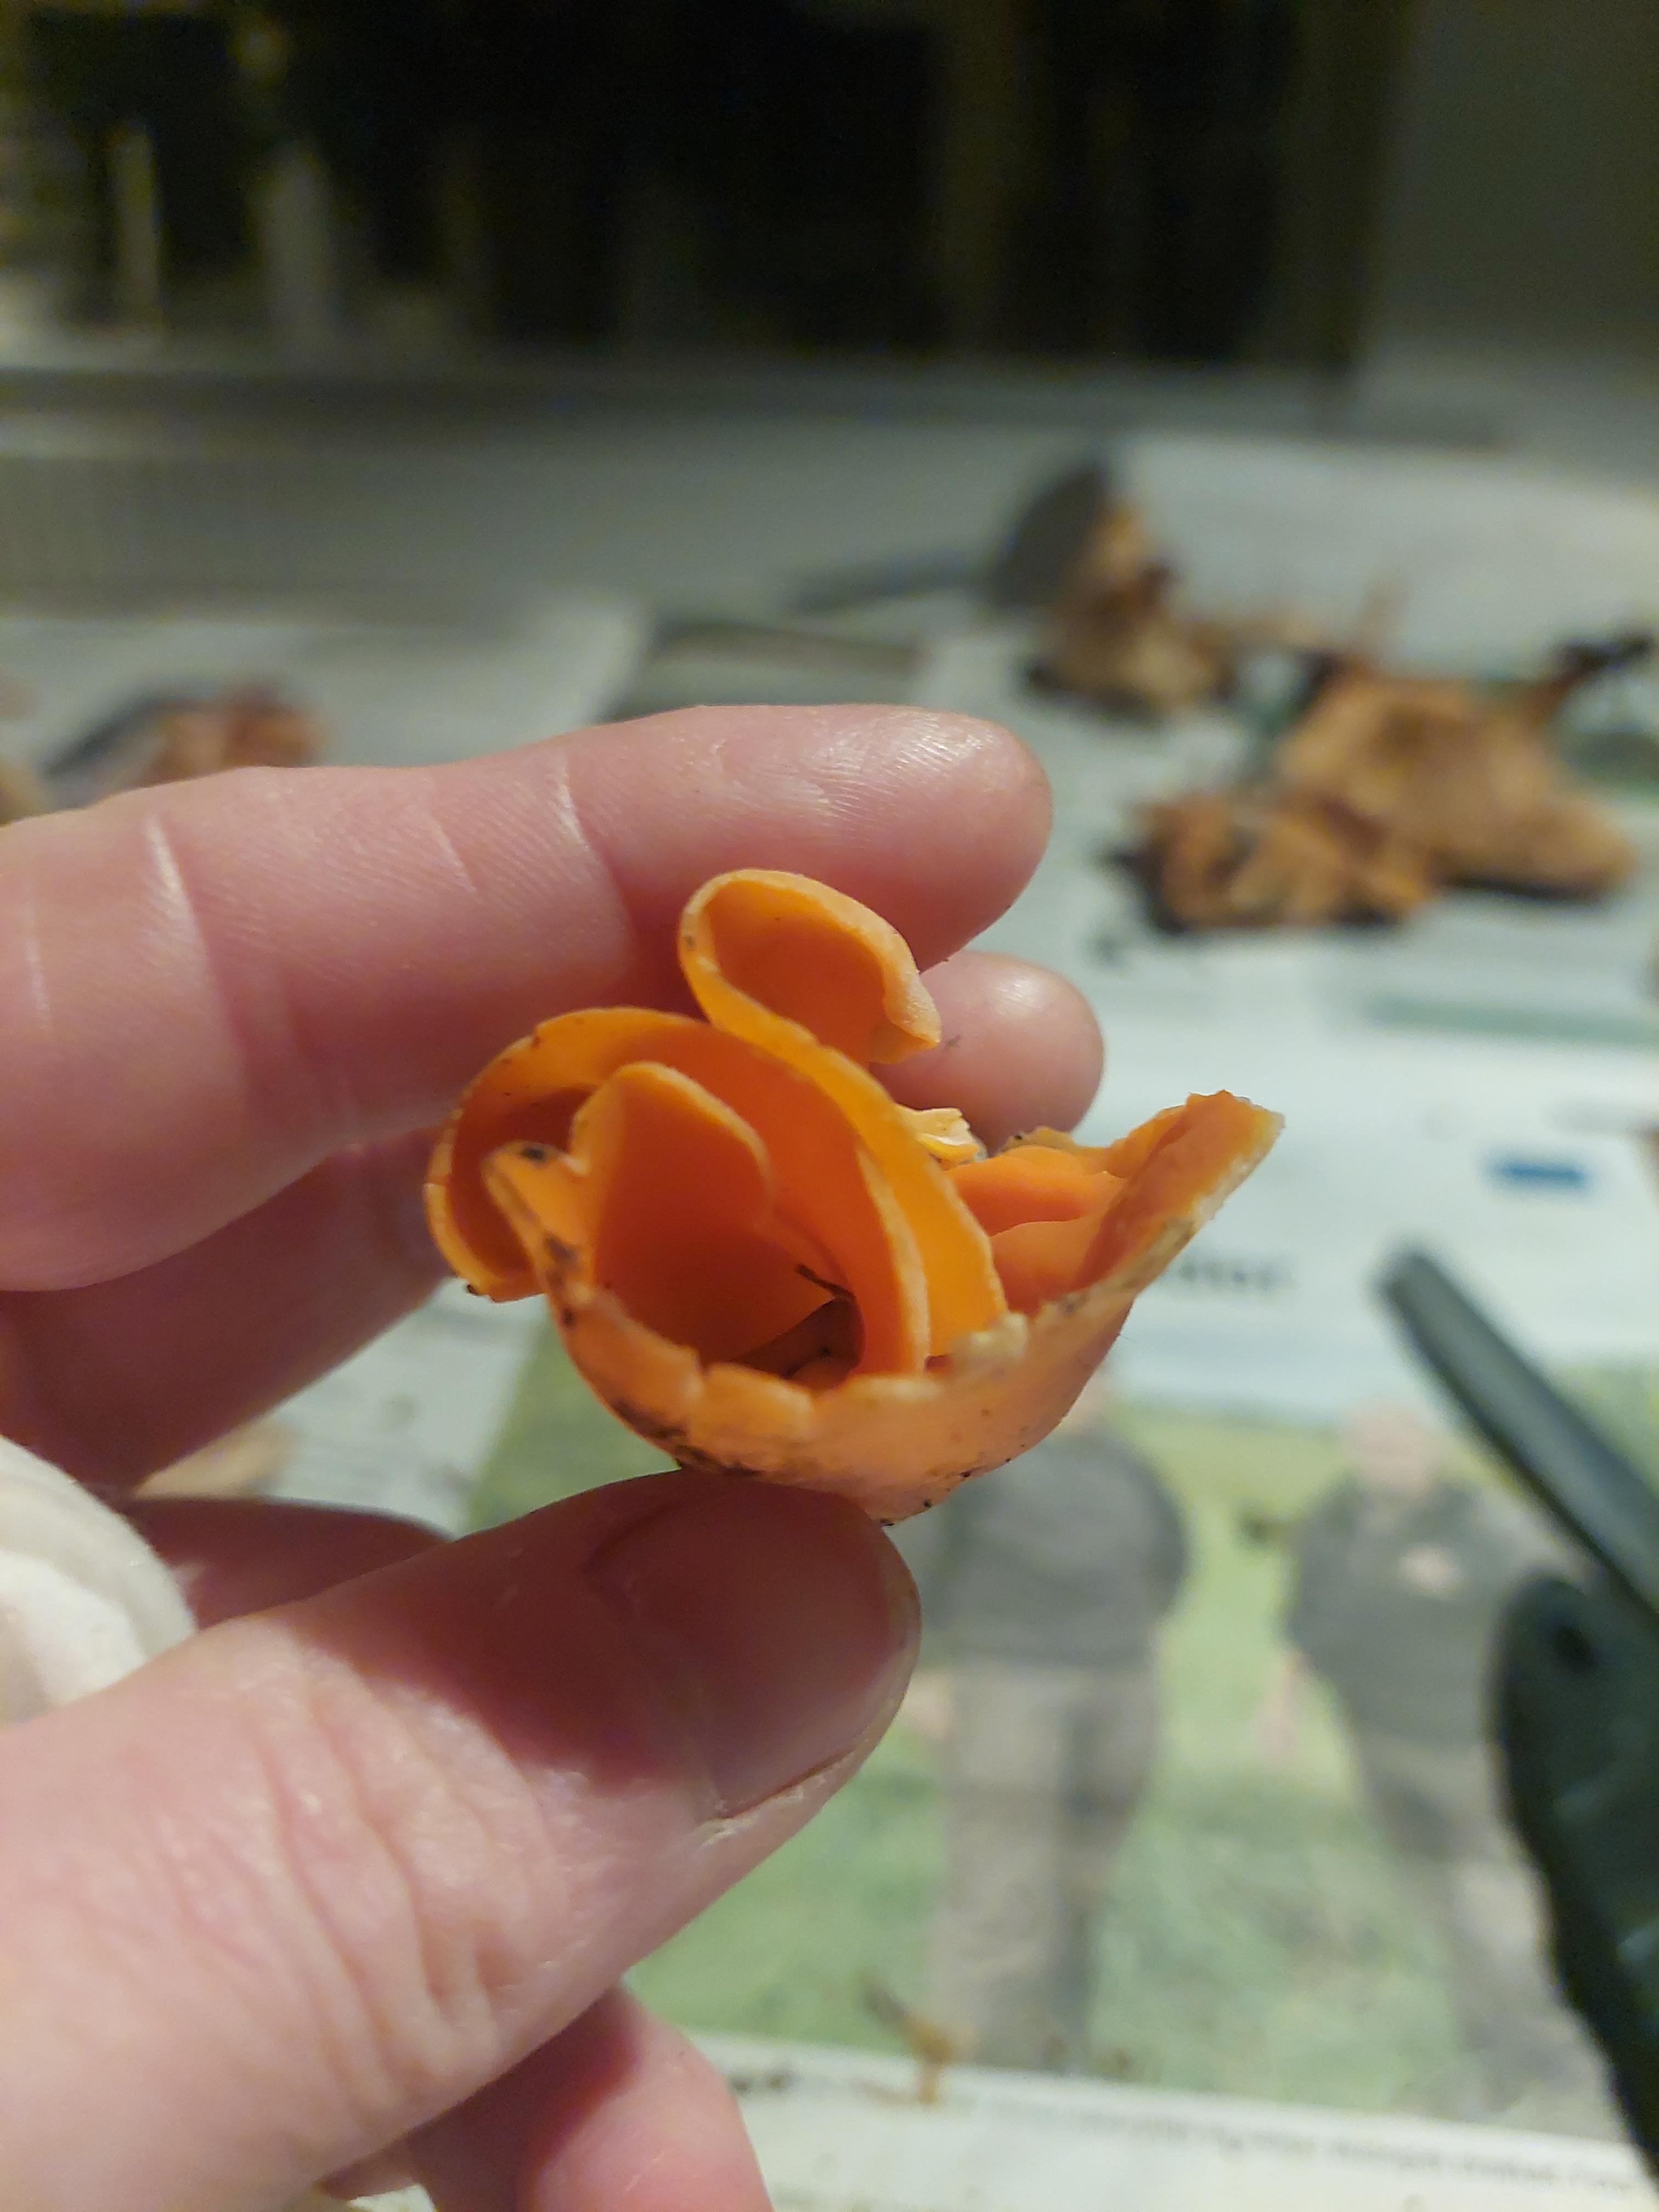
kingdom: Fungi
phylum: Ascomycota
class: Pezizomycetes
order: Pezizales
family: Pyronemataceae
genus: Aleuria
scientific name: Aleuria aurantia
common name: almindelig orangebæger
